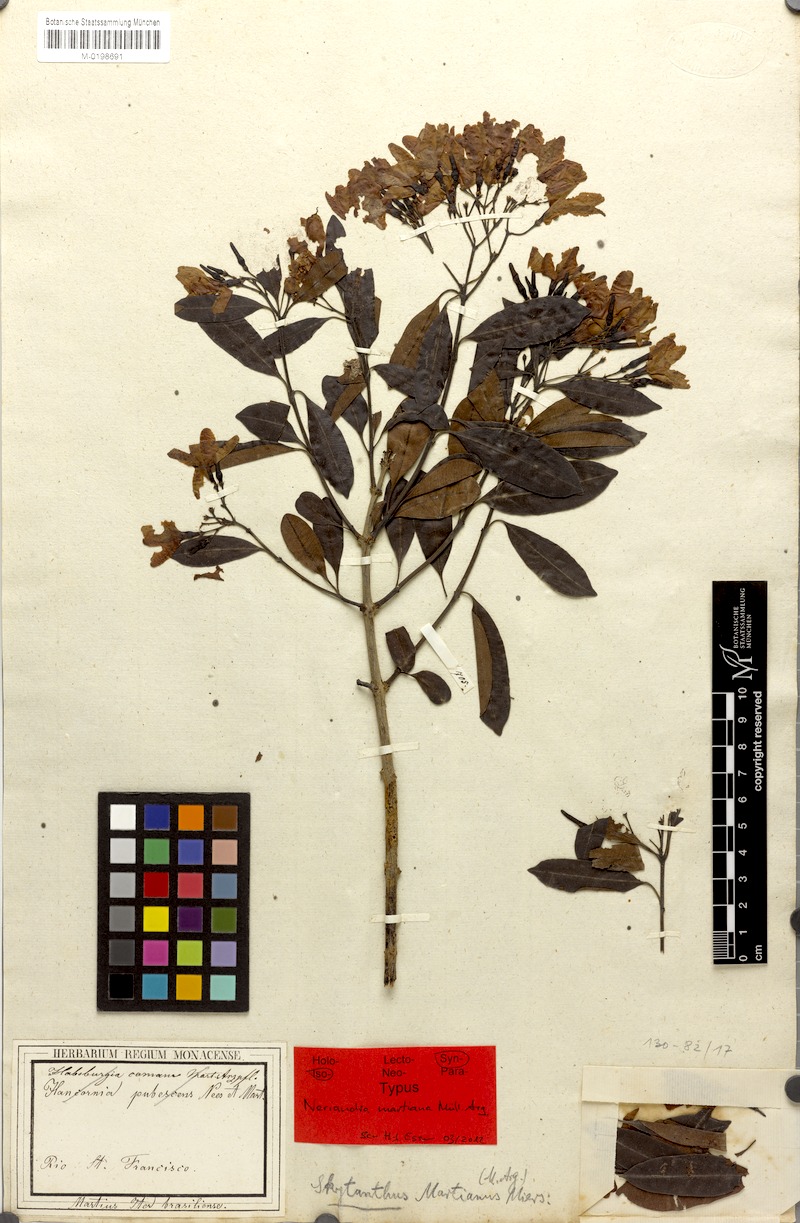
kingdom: Plantae
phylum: Tracheophyta
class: Magnoliopsida
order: Gentianales
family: Apocynaceae
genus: Skytanthus
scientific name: Skytanthus martianus
